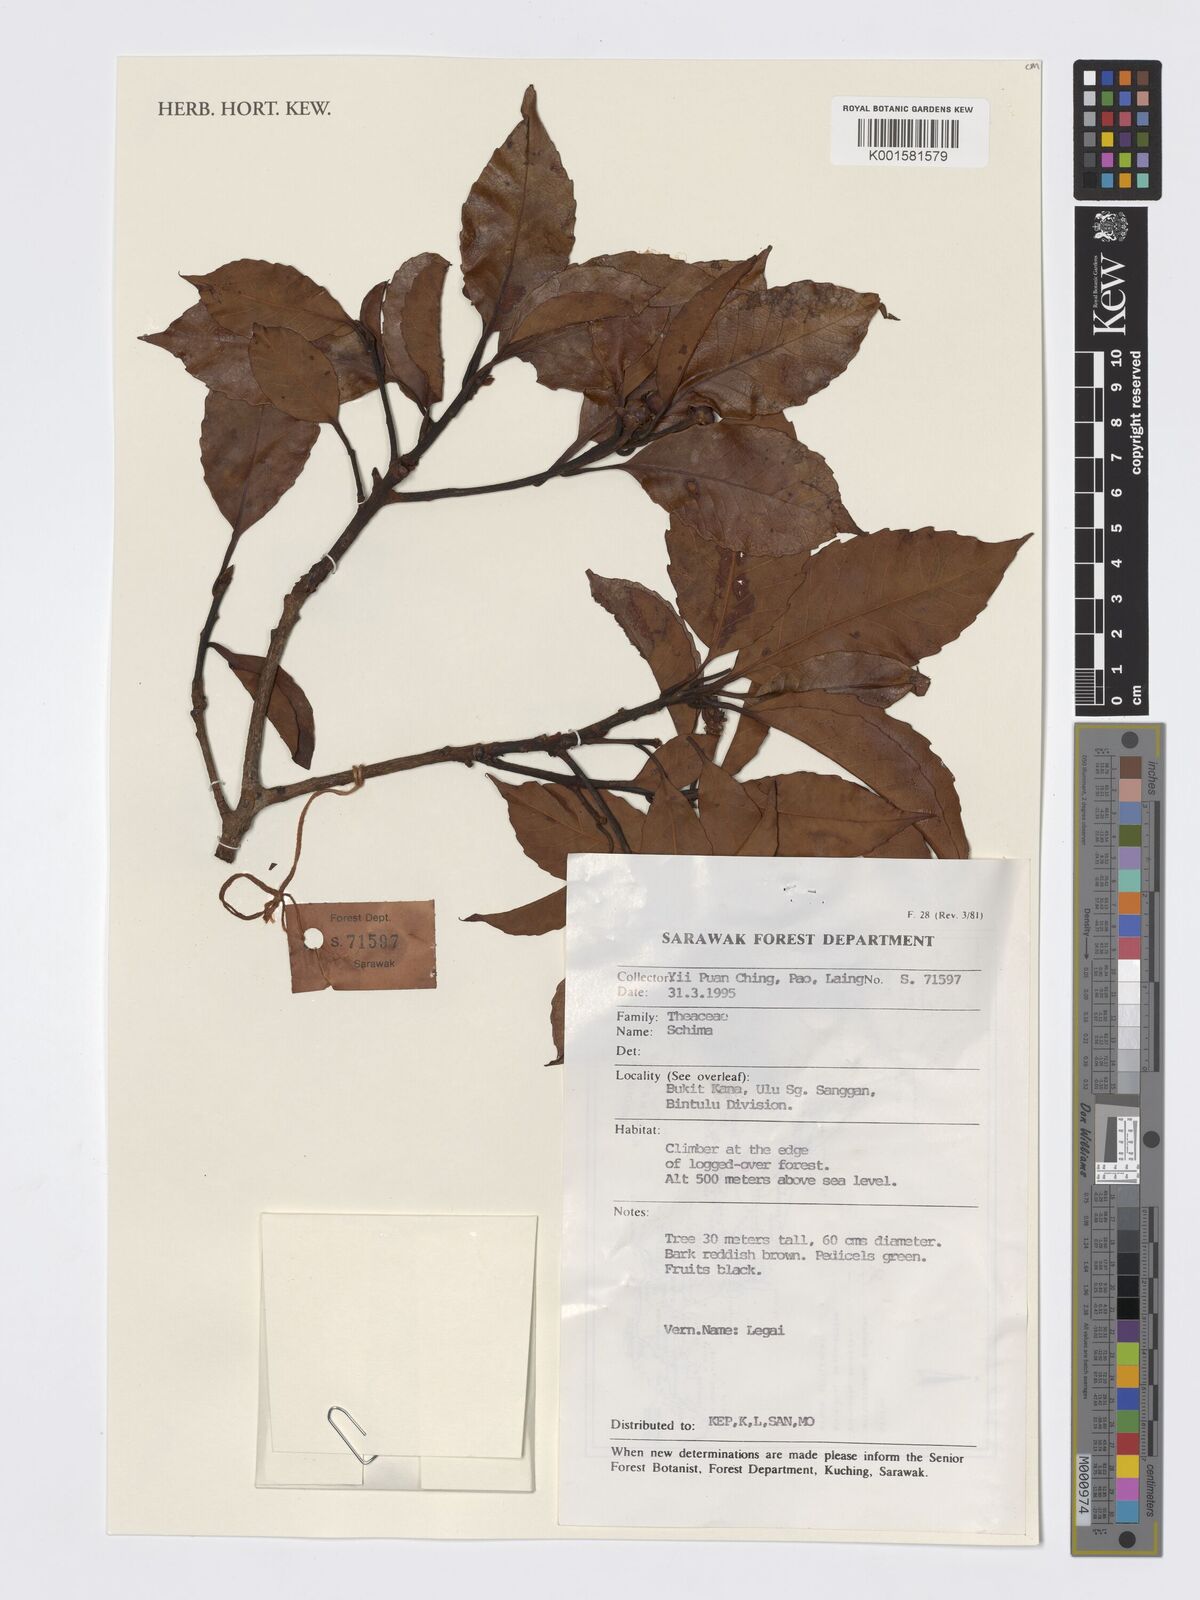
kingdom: Plantae
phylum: Tracheophyta
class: Magnoliopsida
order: Ericales
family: Theaceae
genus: Schima
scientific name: Schima
